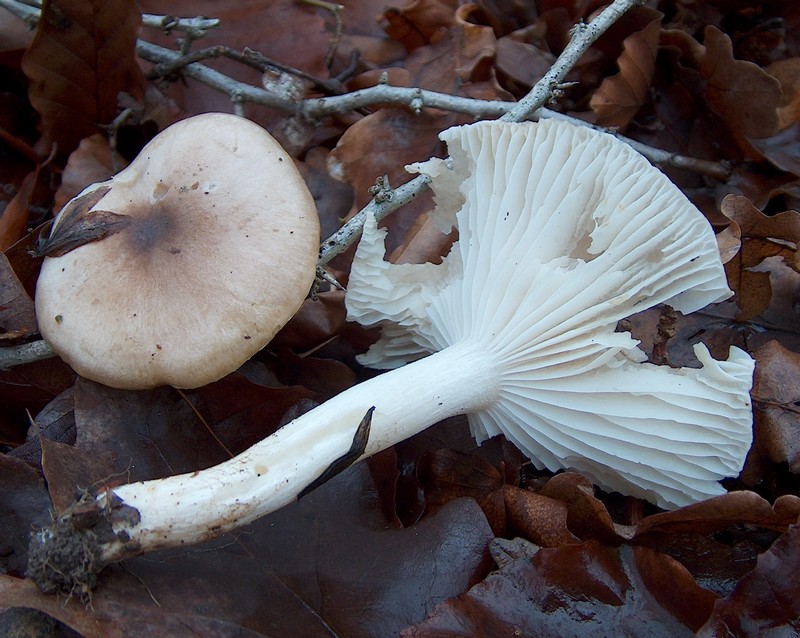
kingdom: Fungi
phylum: Basidiomycota
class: Agaricomycetes
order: Agaricales
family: Hygrophoraceae
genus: Hygrophorus
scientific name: Hygrophorus arbustivus
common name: Forest woodwax
